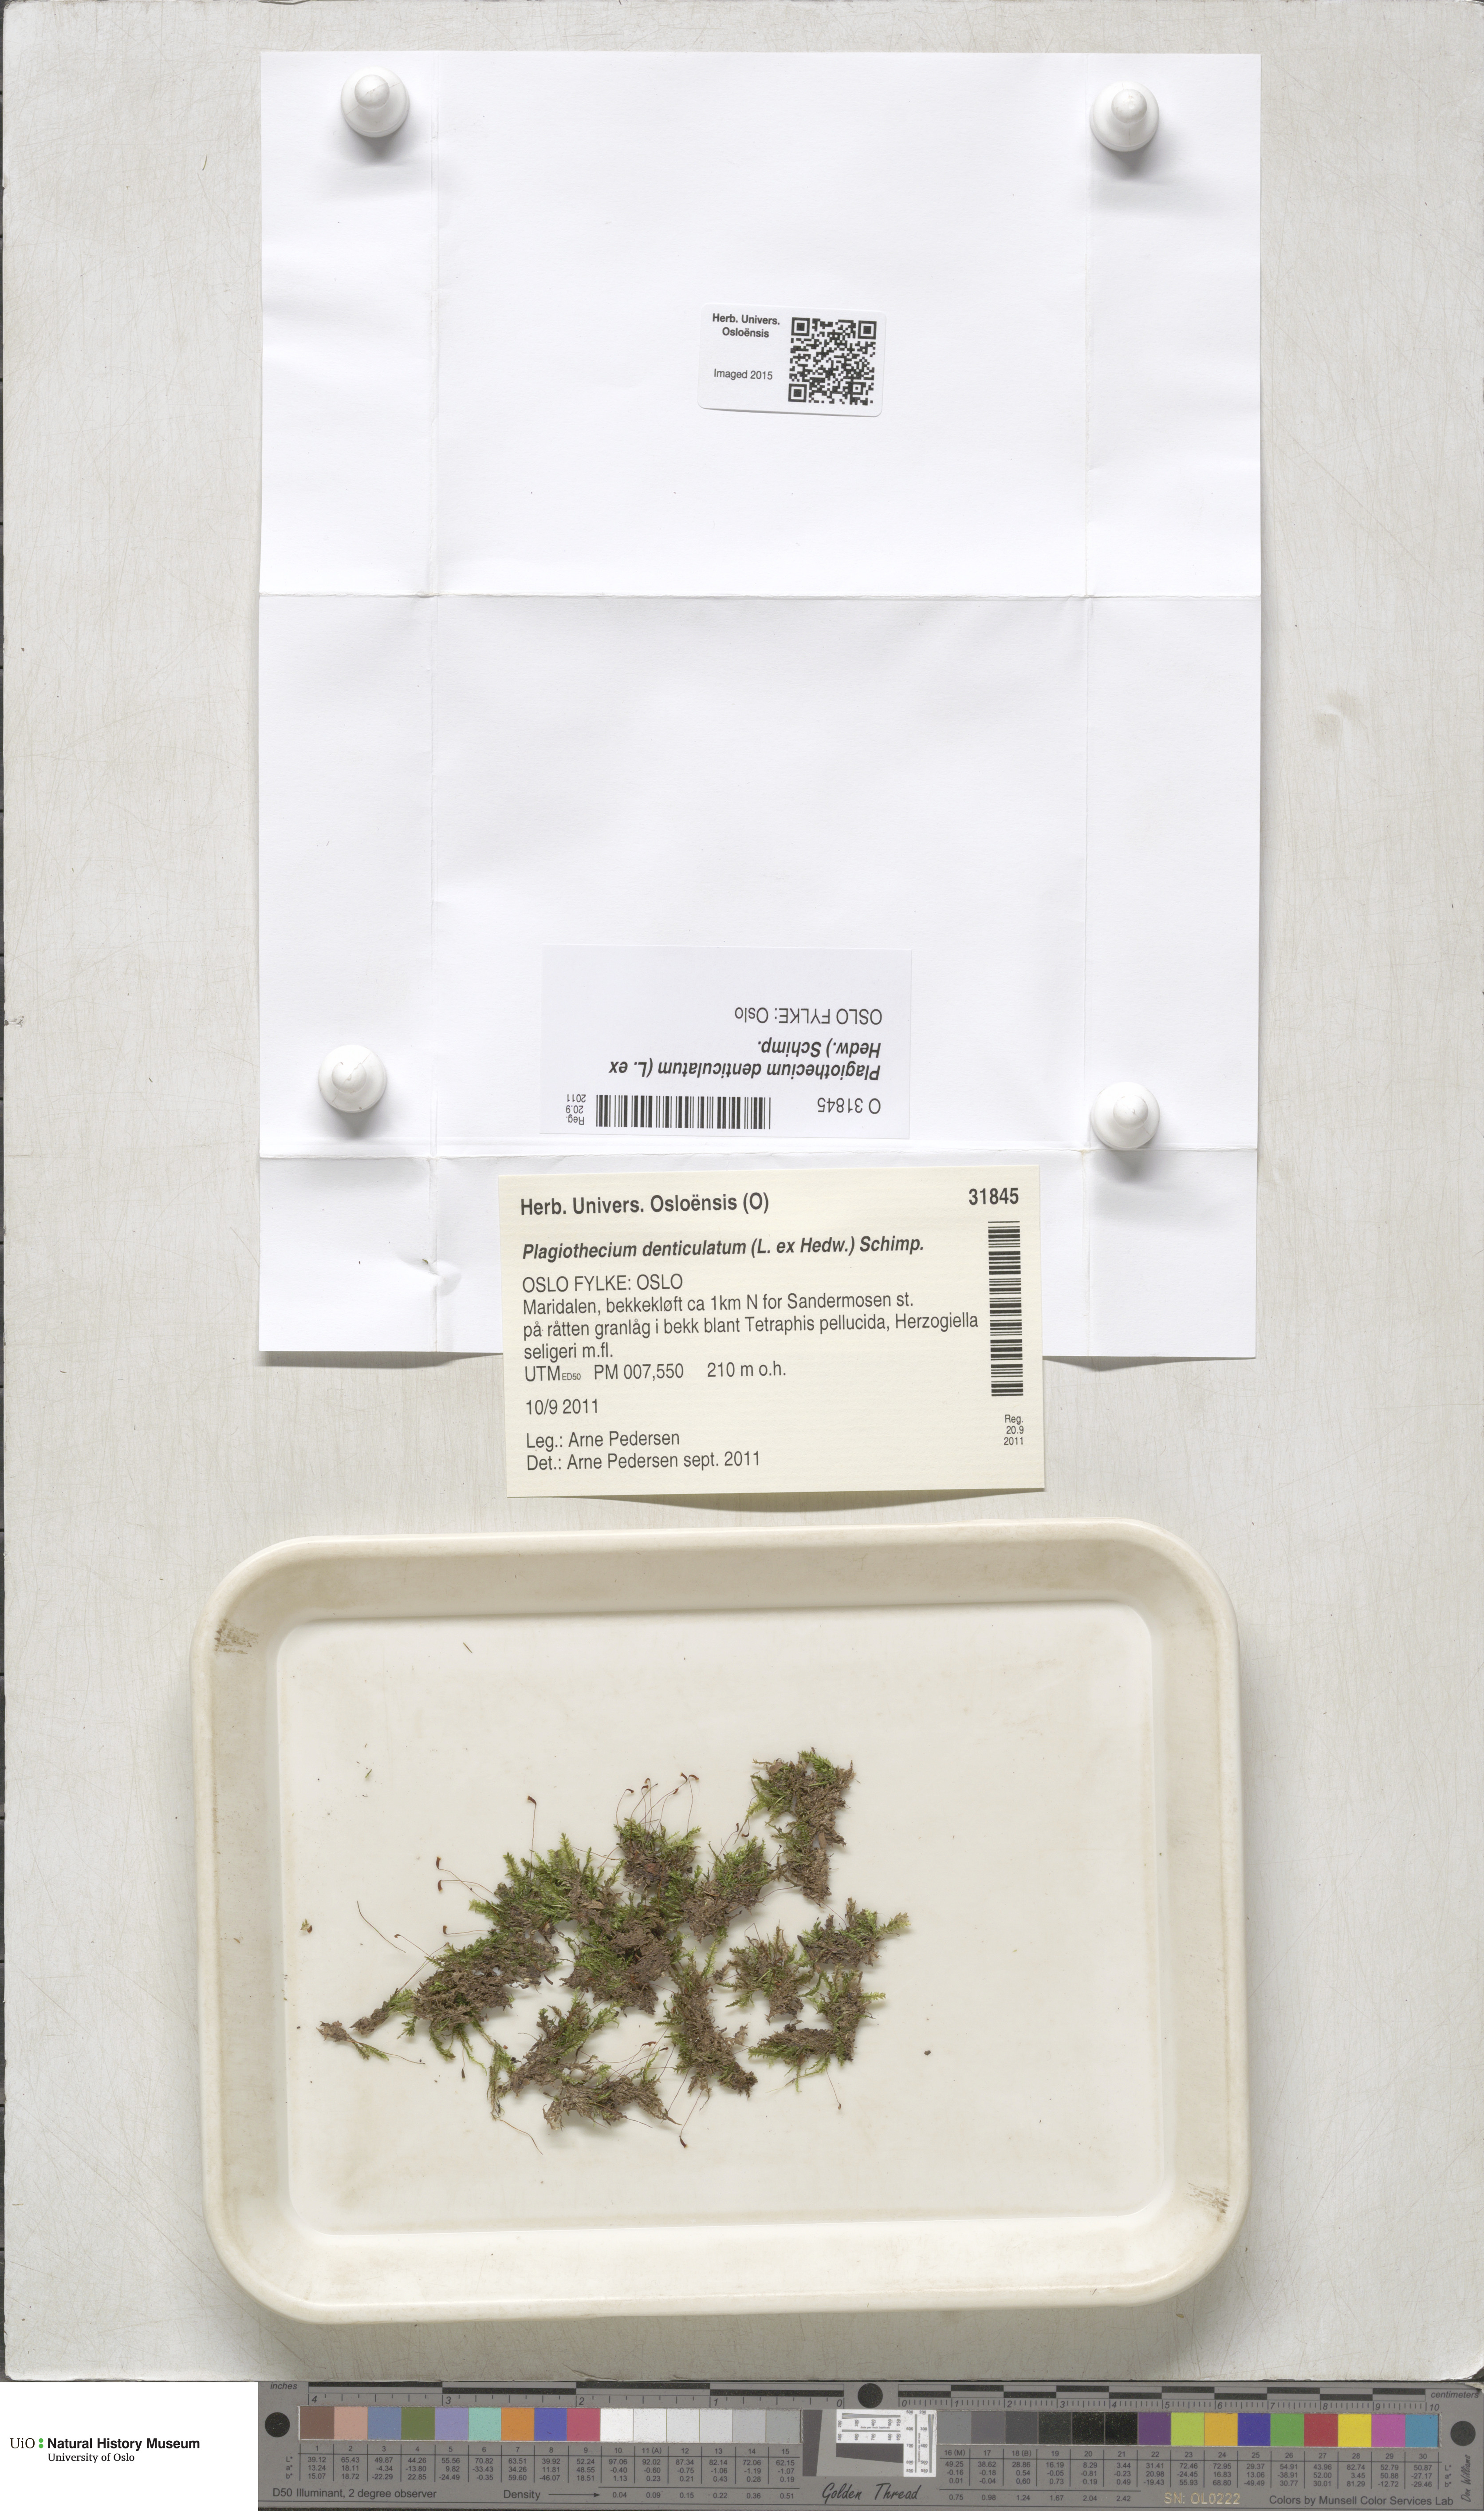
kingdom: Plantae
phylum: Bryophyta
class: Bryopsida
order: Hypnales
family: Plagiotheciaceae
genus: Plagiothecium
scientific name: Plagiothecium denticulatum
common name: Dented silk moss
